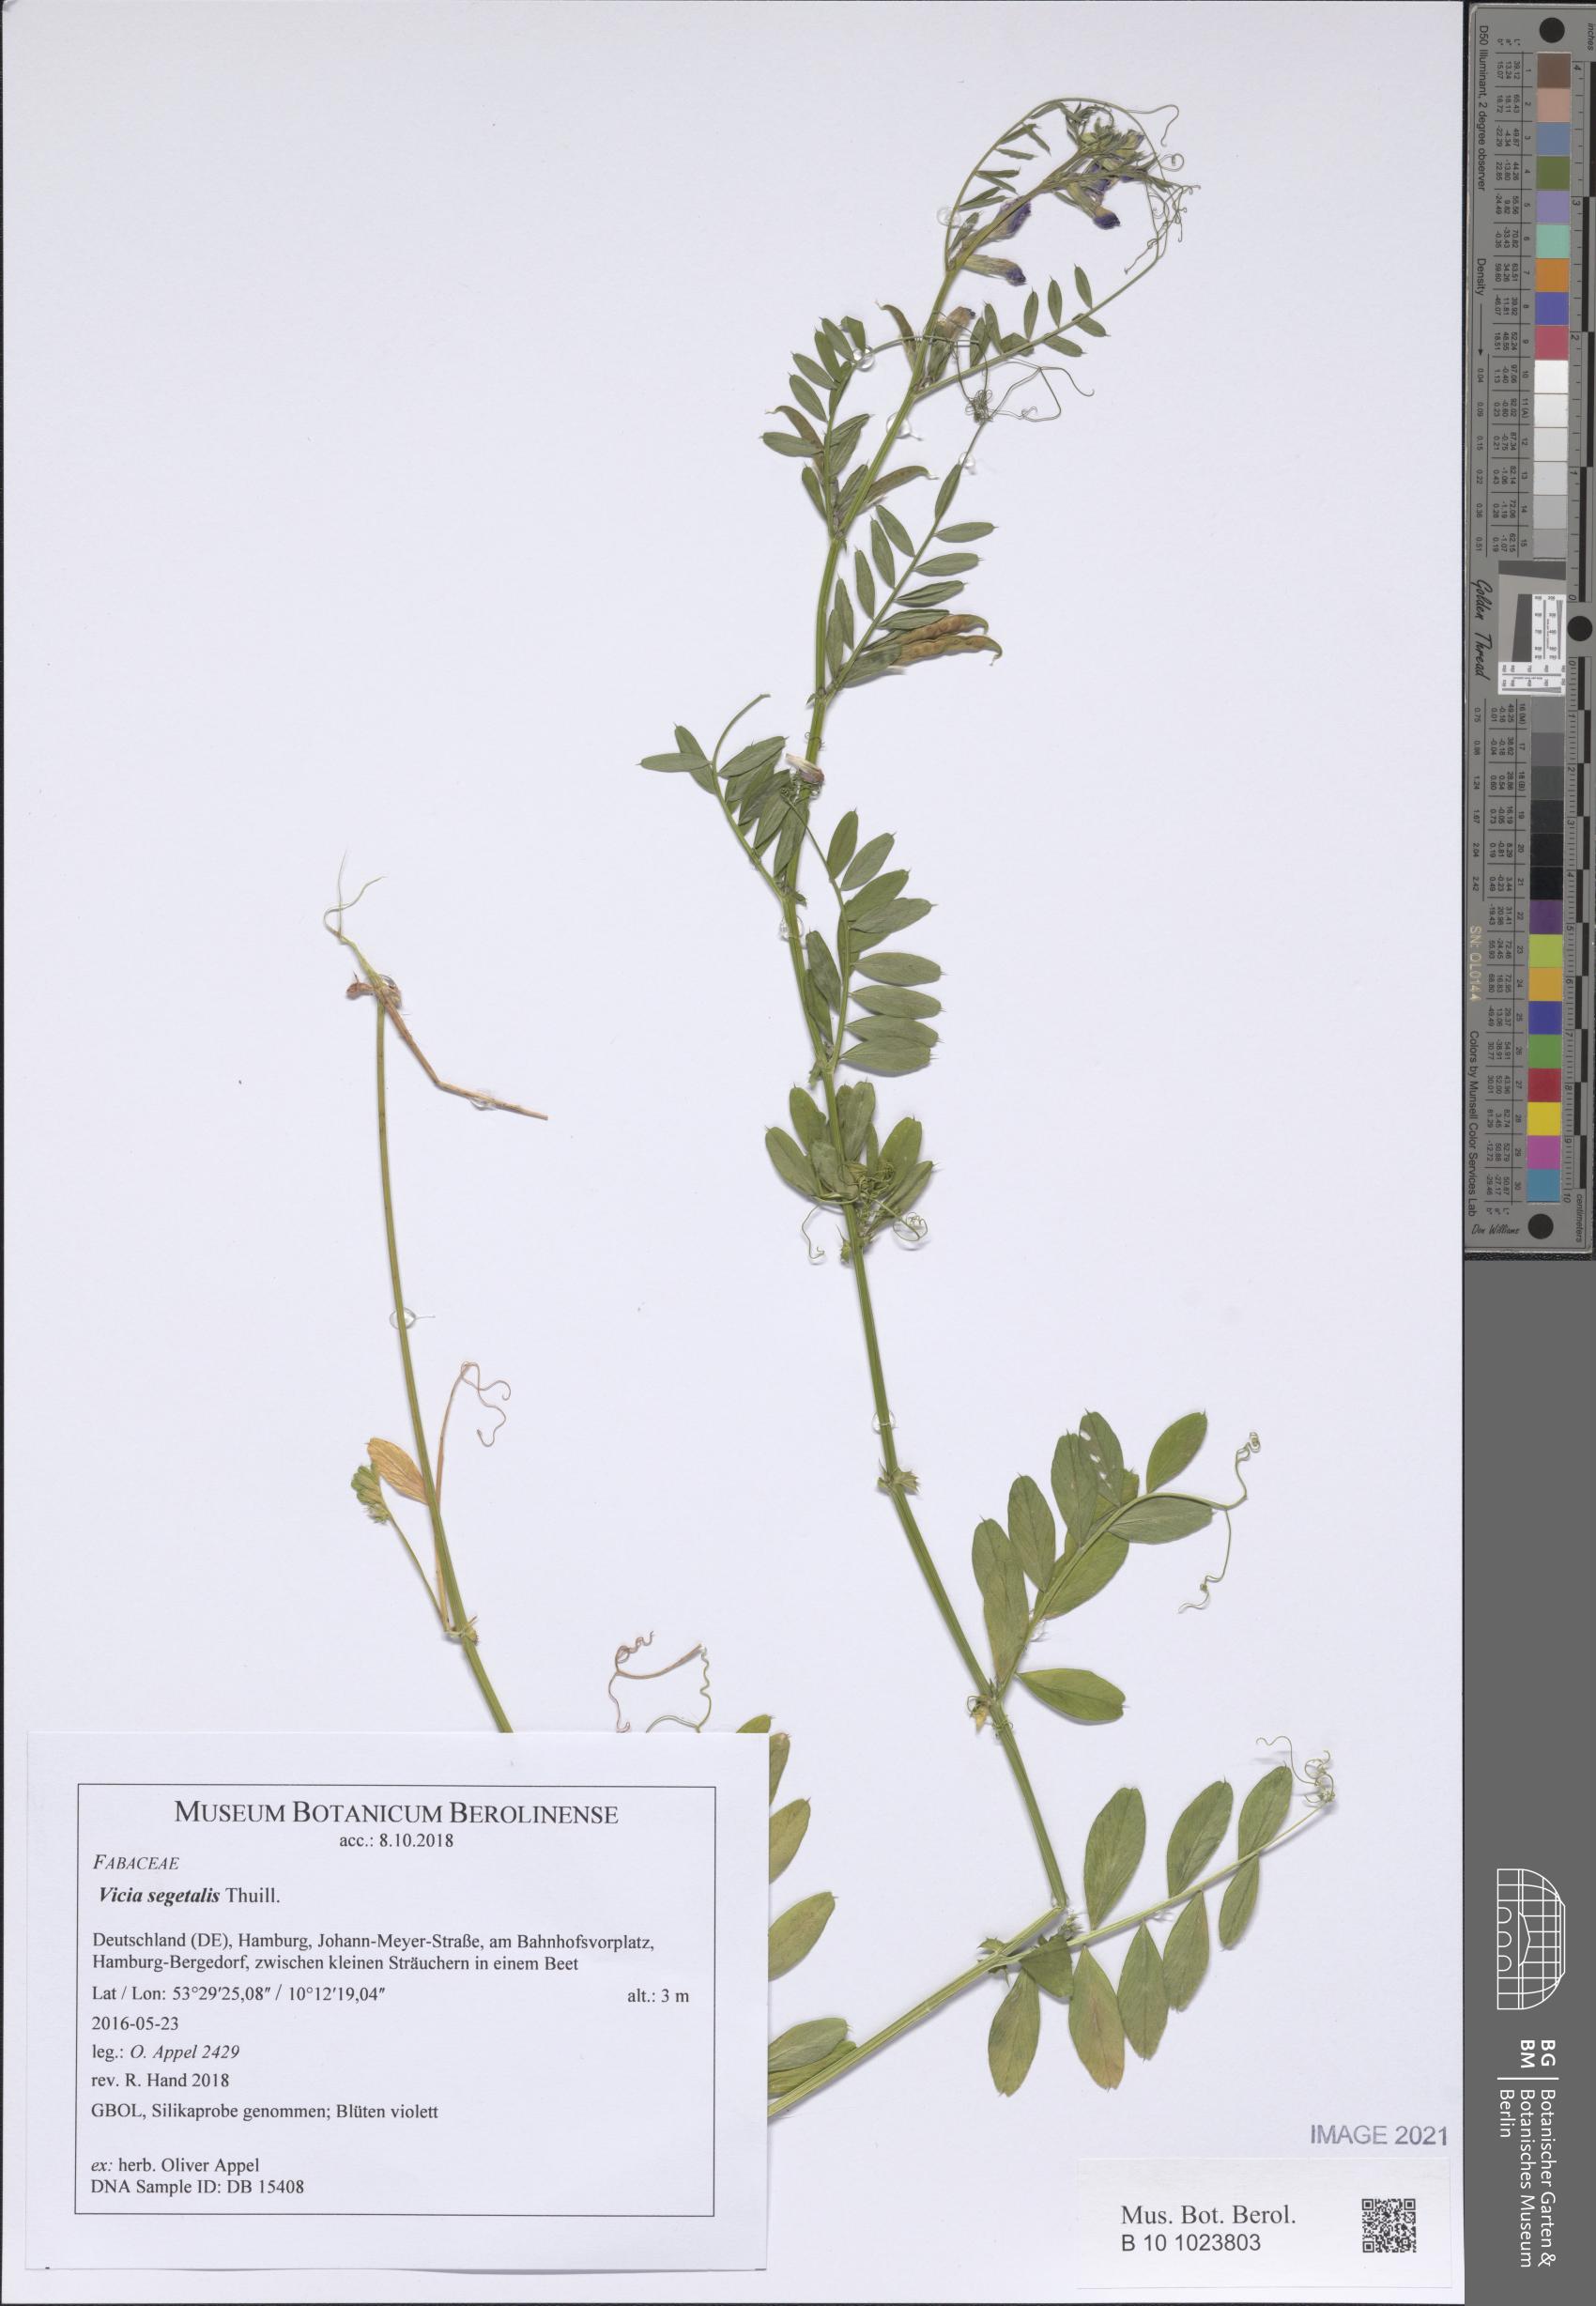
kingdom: Plantae
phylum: Tracheophyta
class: Magnoliopsida
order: Fabales
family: Fabaceae
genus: Vicia
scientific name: Vicia sativa
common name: Garden vetch
